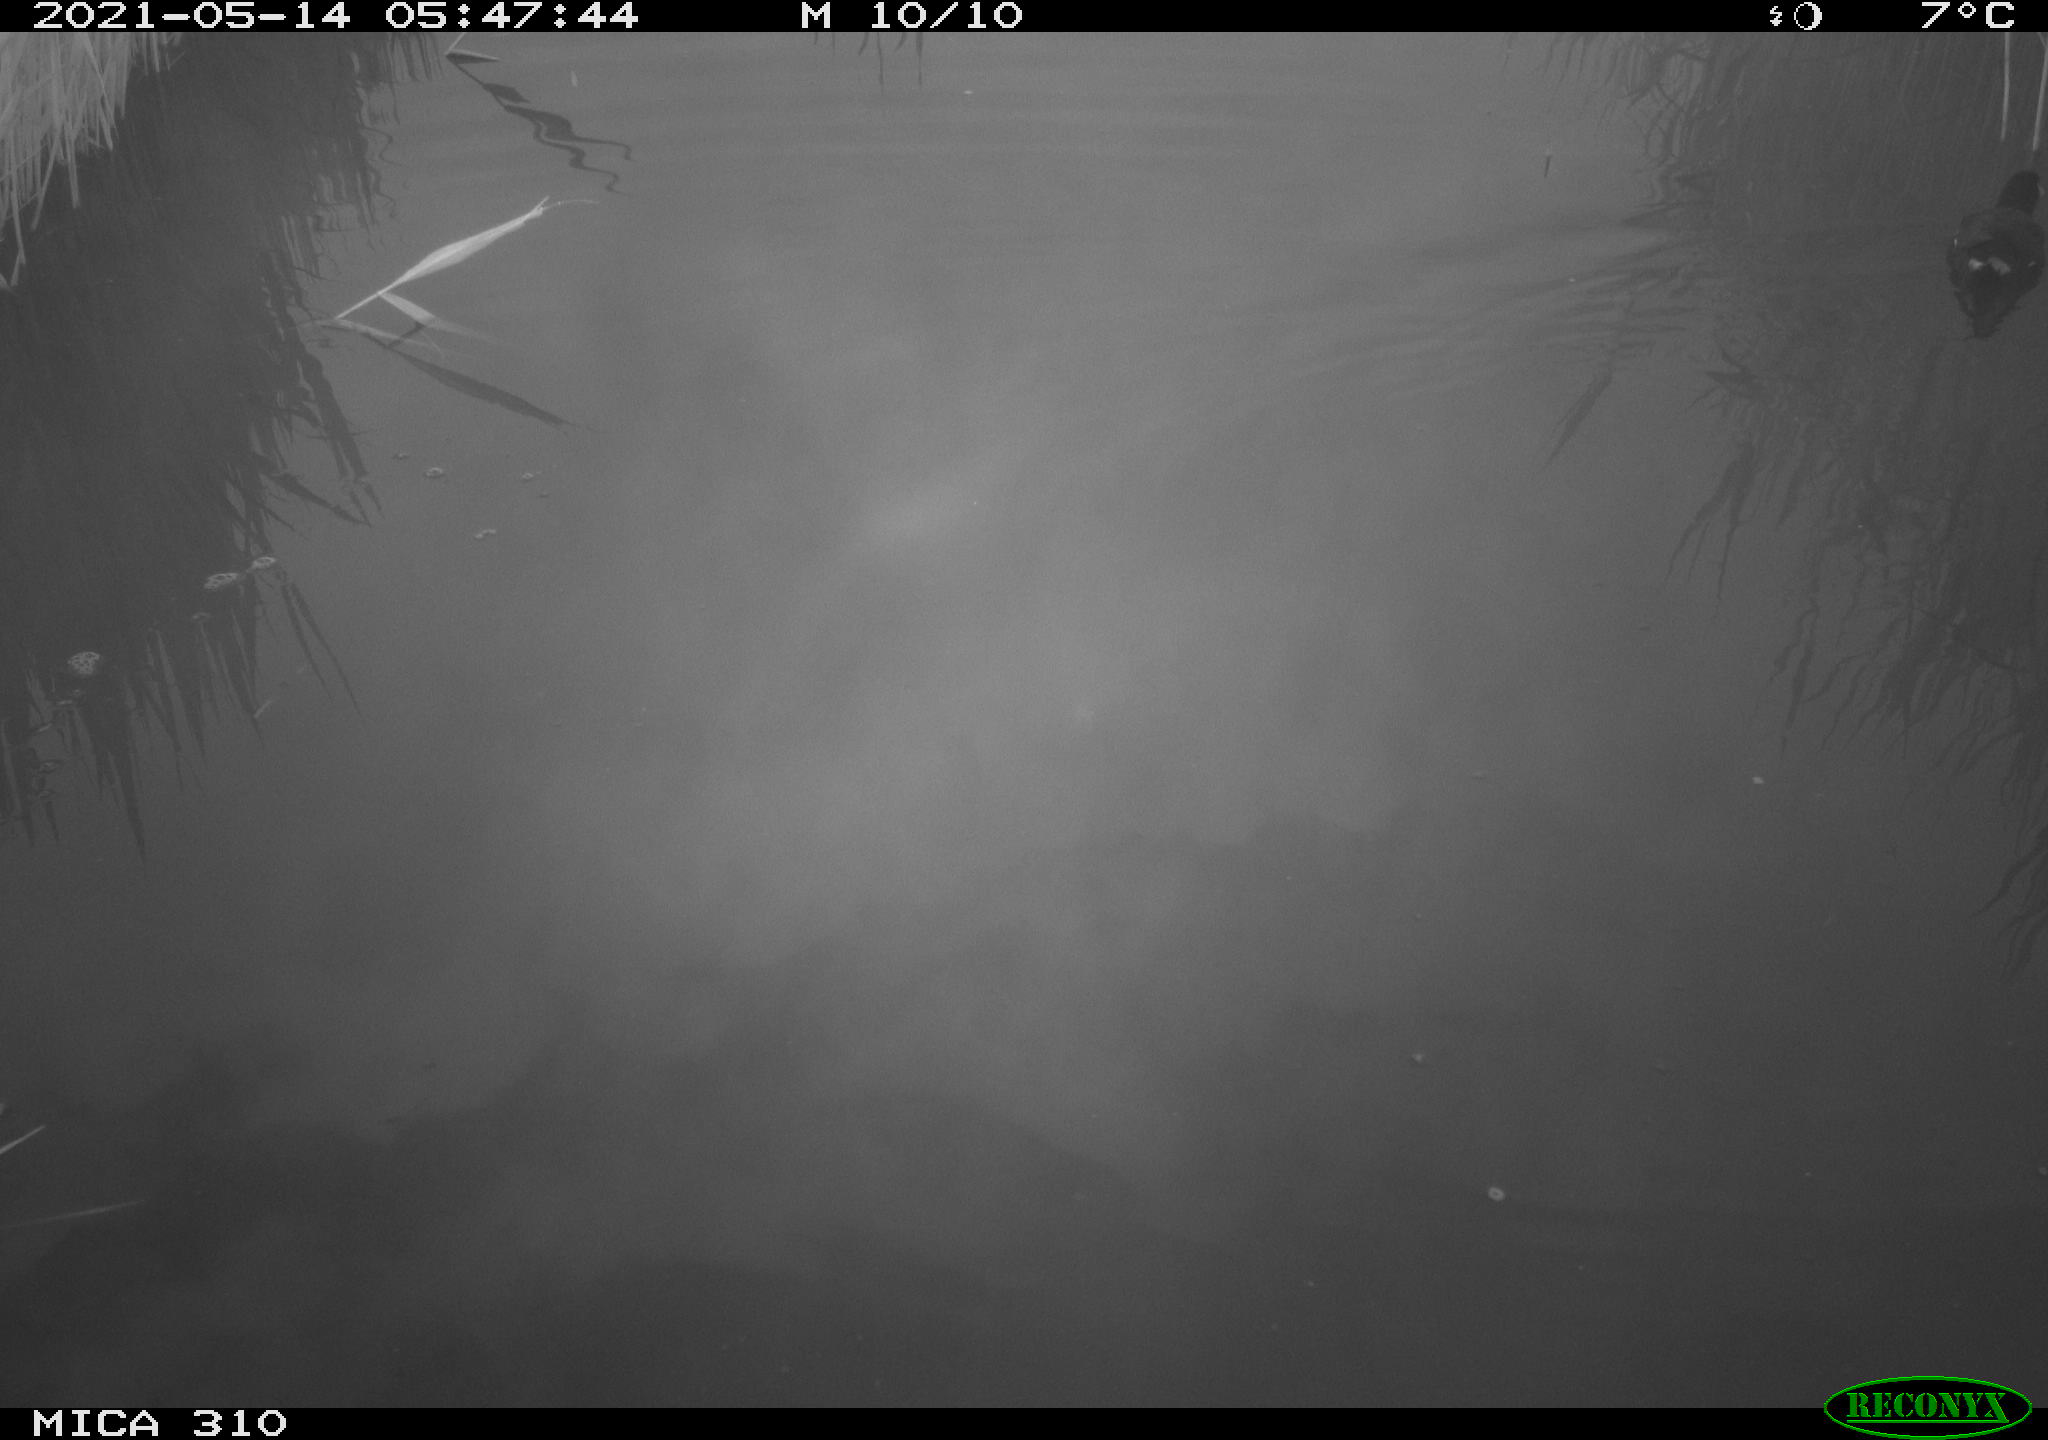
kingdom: Animalia
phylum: Chordata
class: Aves
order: Gruiformes
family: Rallidae
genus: Gallinula
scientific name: Gallinula chloropus
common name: Common moorhen
